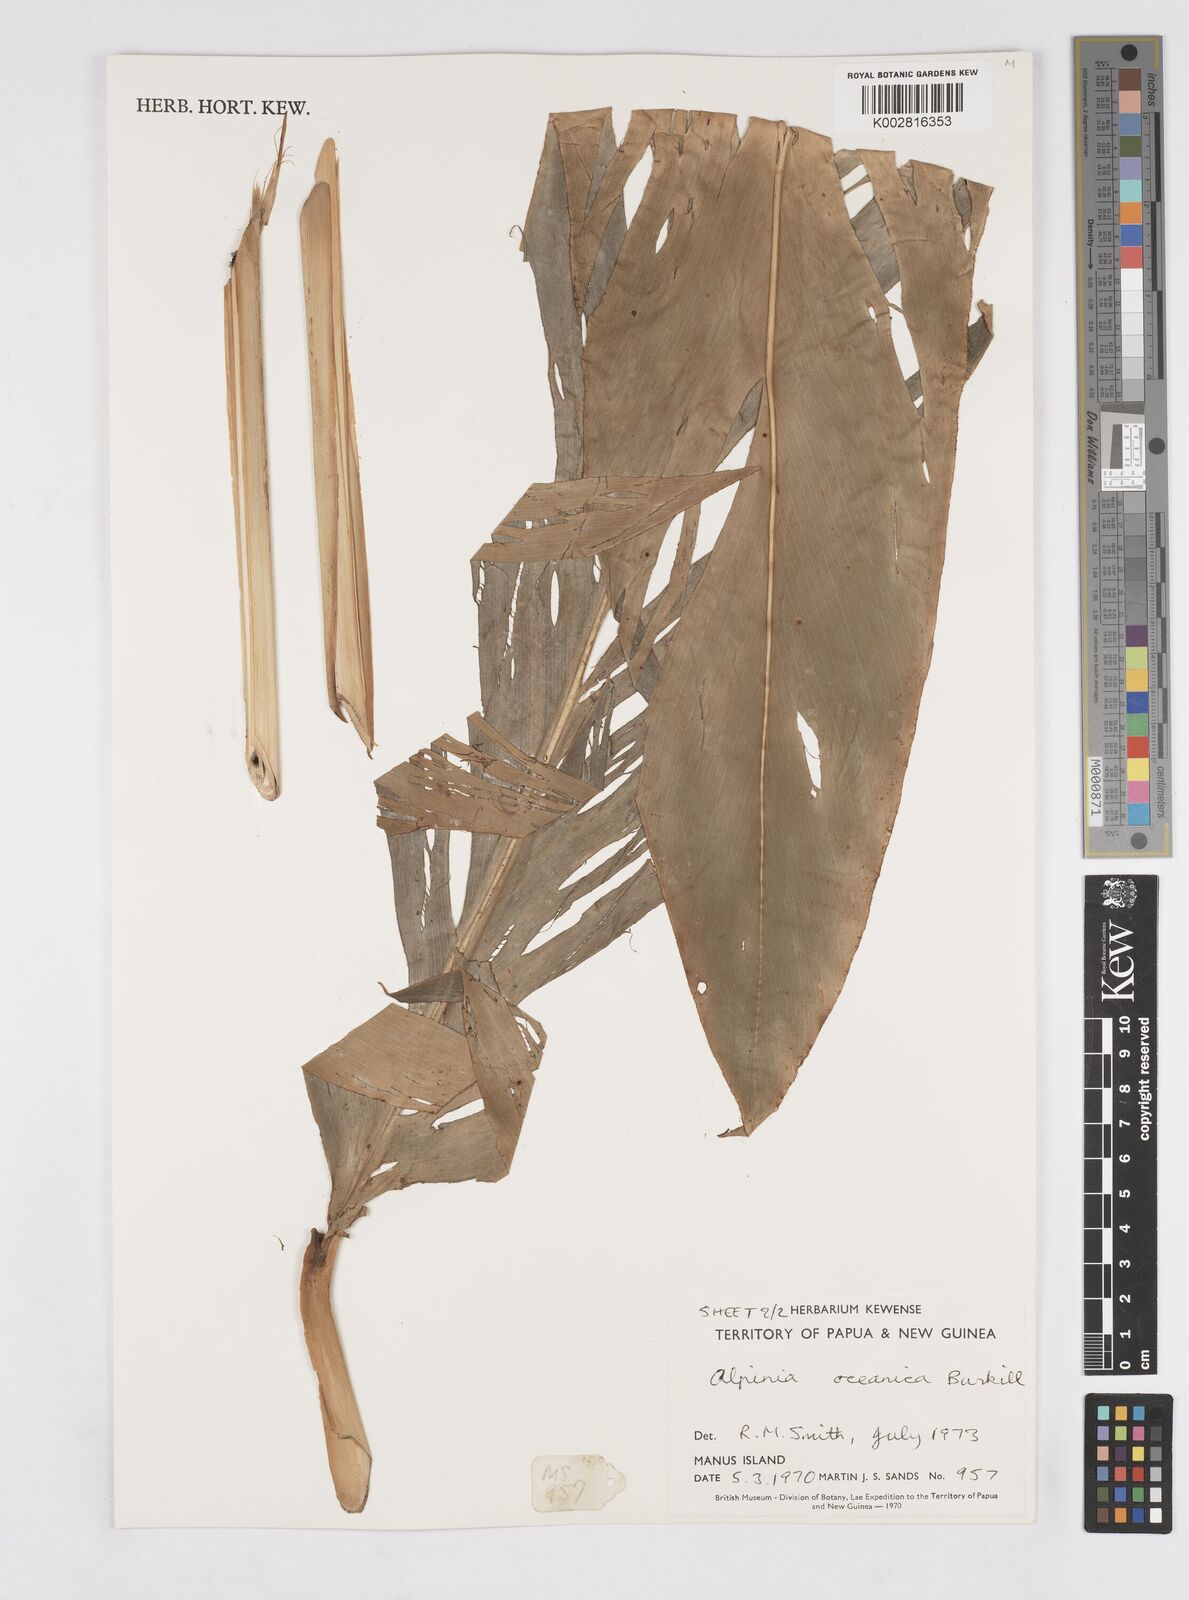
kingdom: Plantae
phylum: Tracheophyta
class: Liliopsida
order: Zingiberales
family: Zingiberaceae
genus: Alpinia
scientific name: Alpinia oceanica
